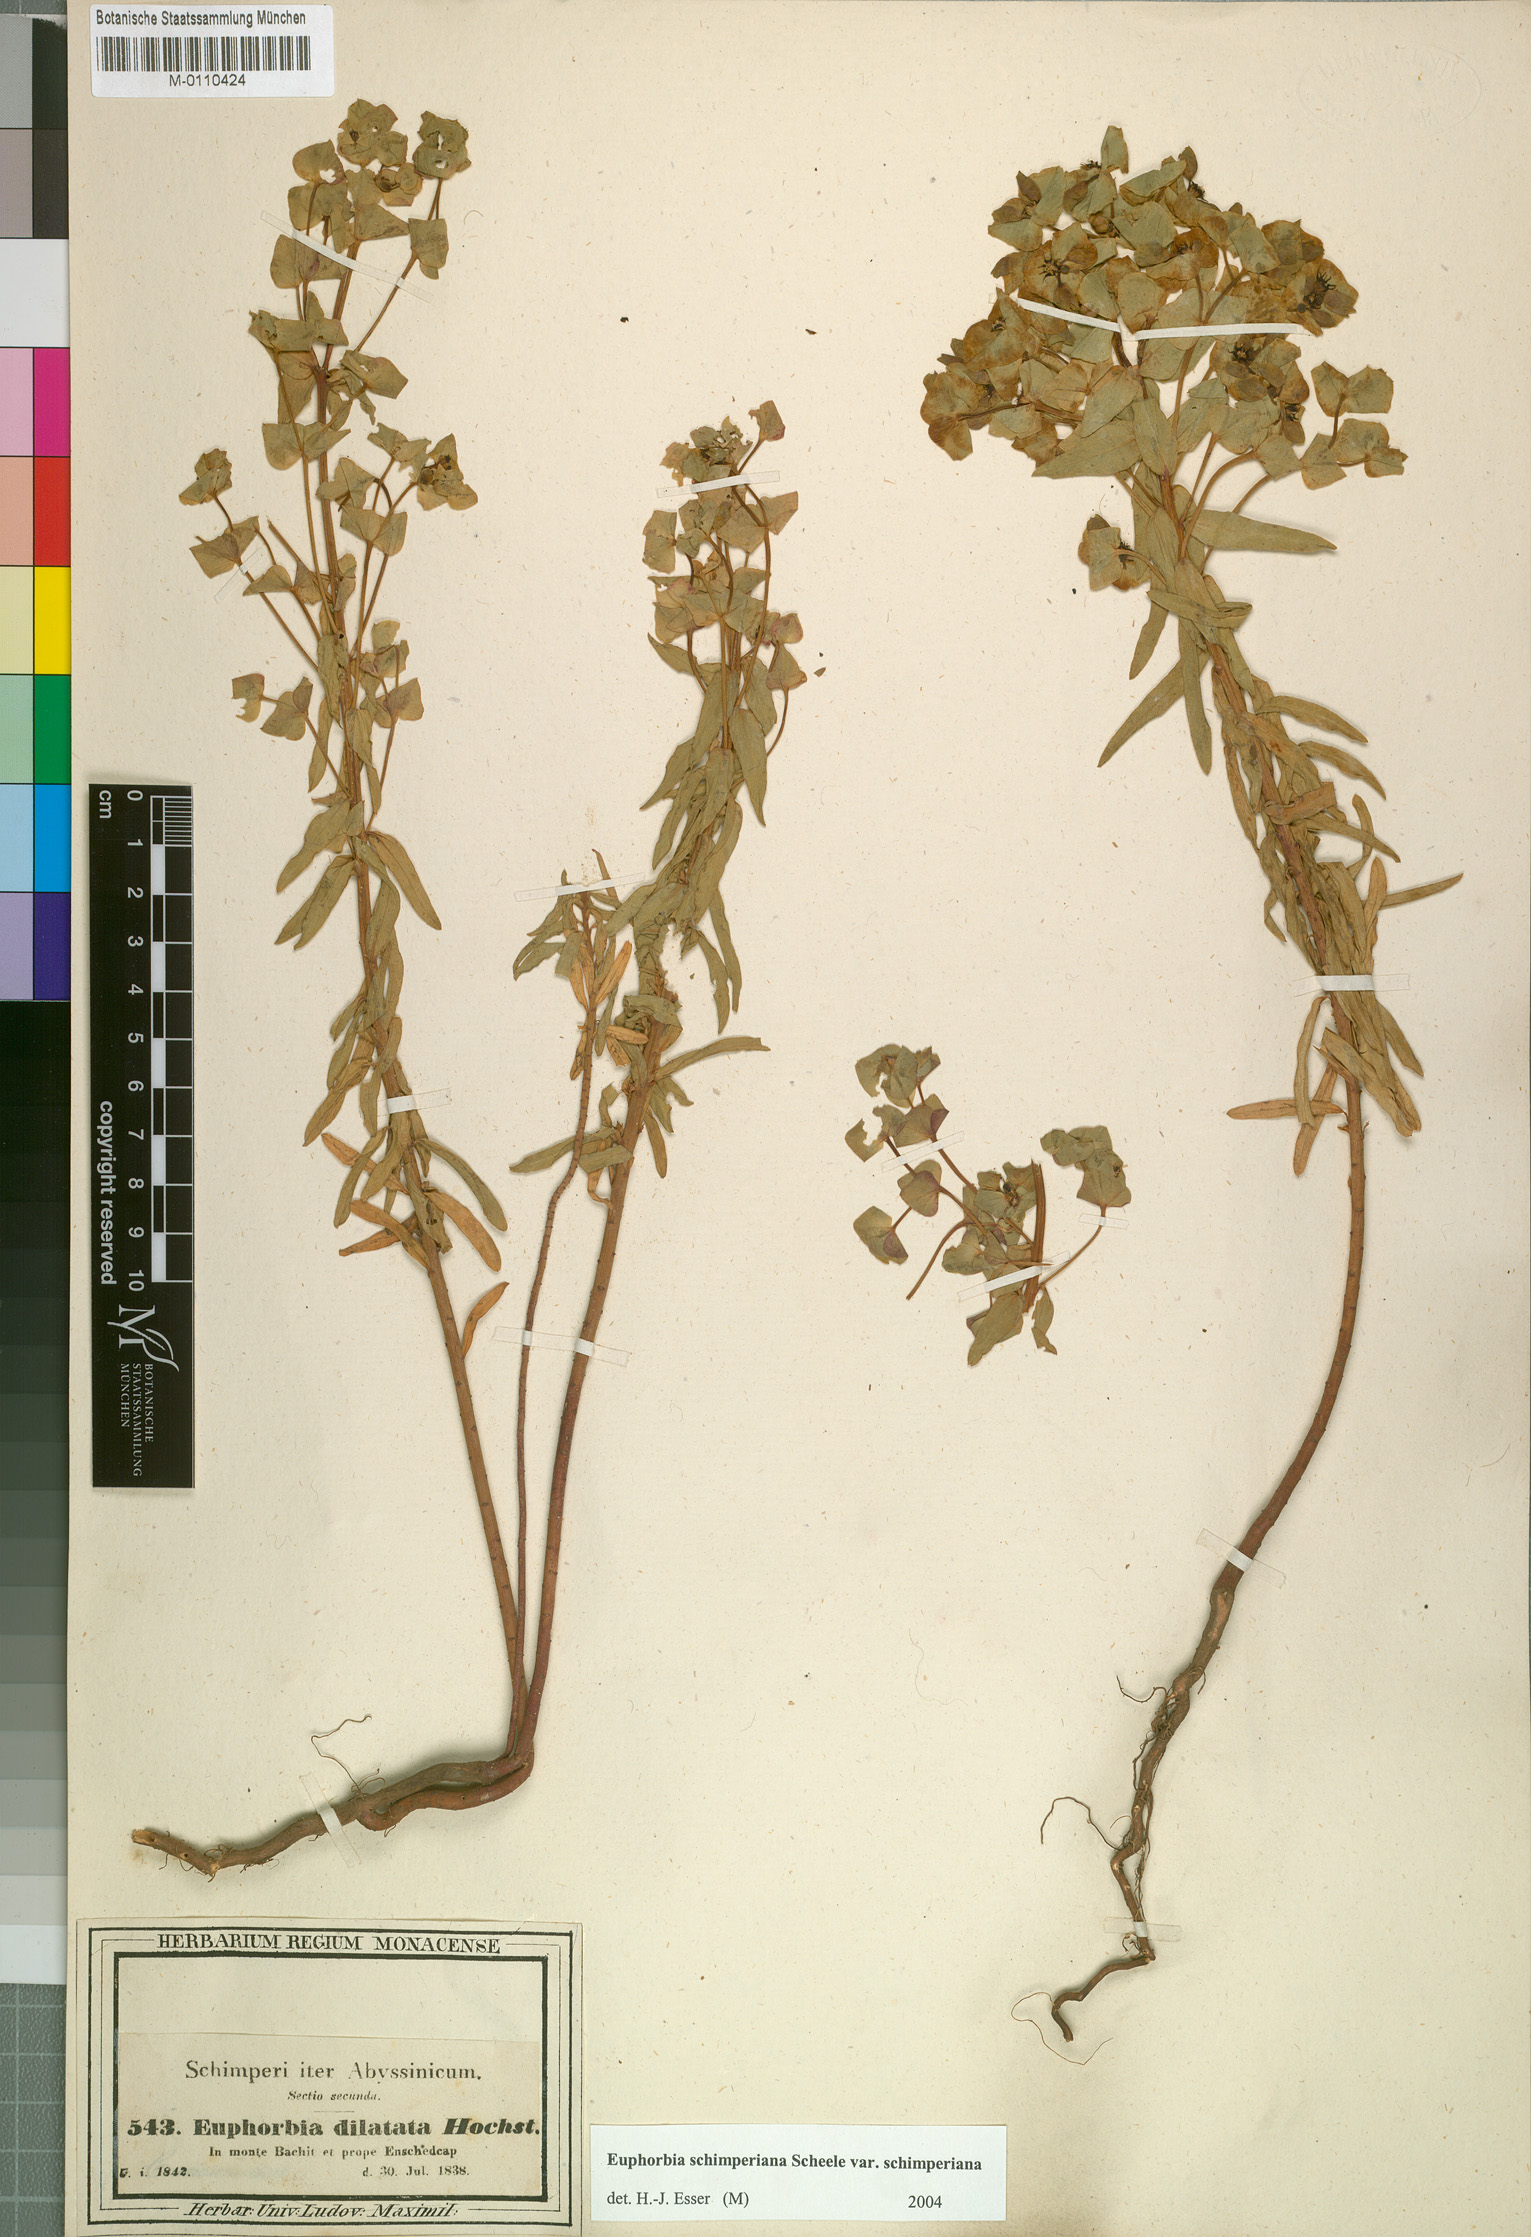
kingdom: Plantae
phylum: Tracheophyta
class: Magnoliopsida
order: Malpighiales
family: Euphorbiaceae
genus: Euphorbia
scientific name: Euphorbia schimperiana
